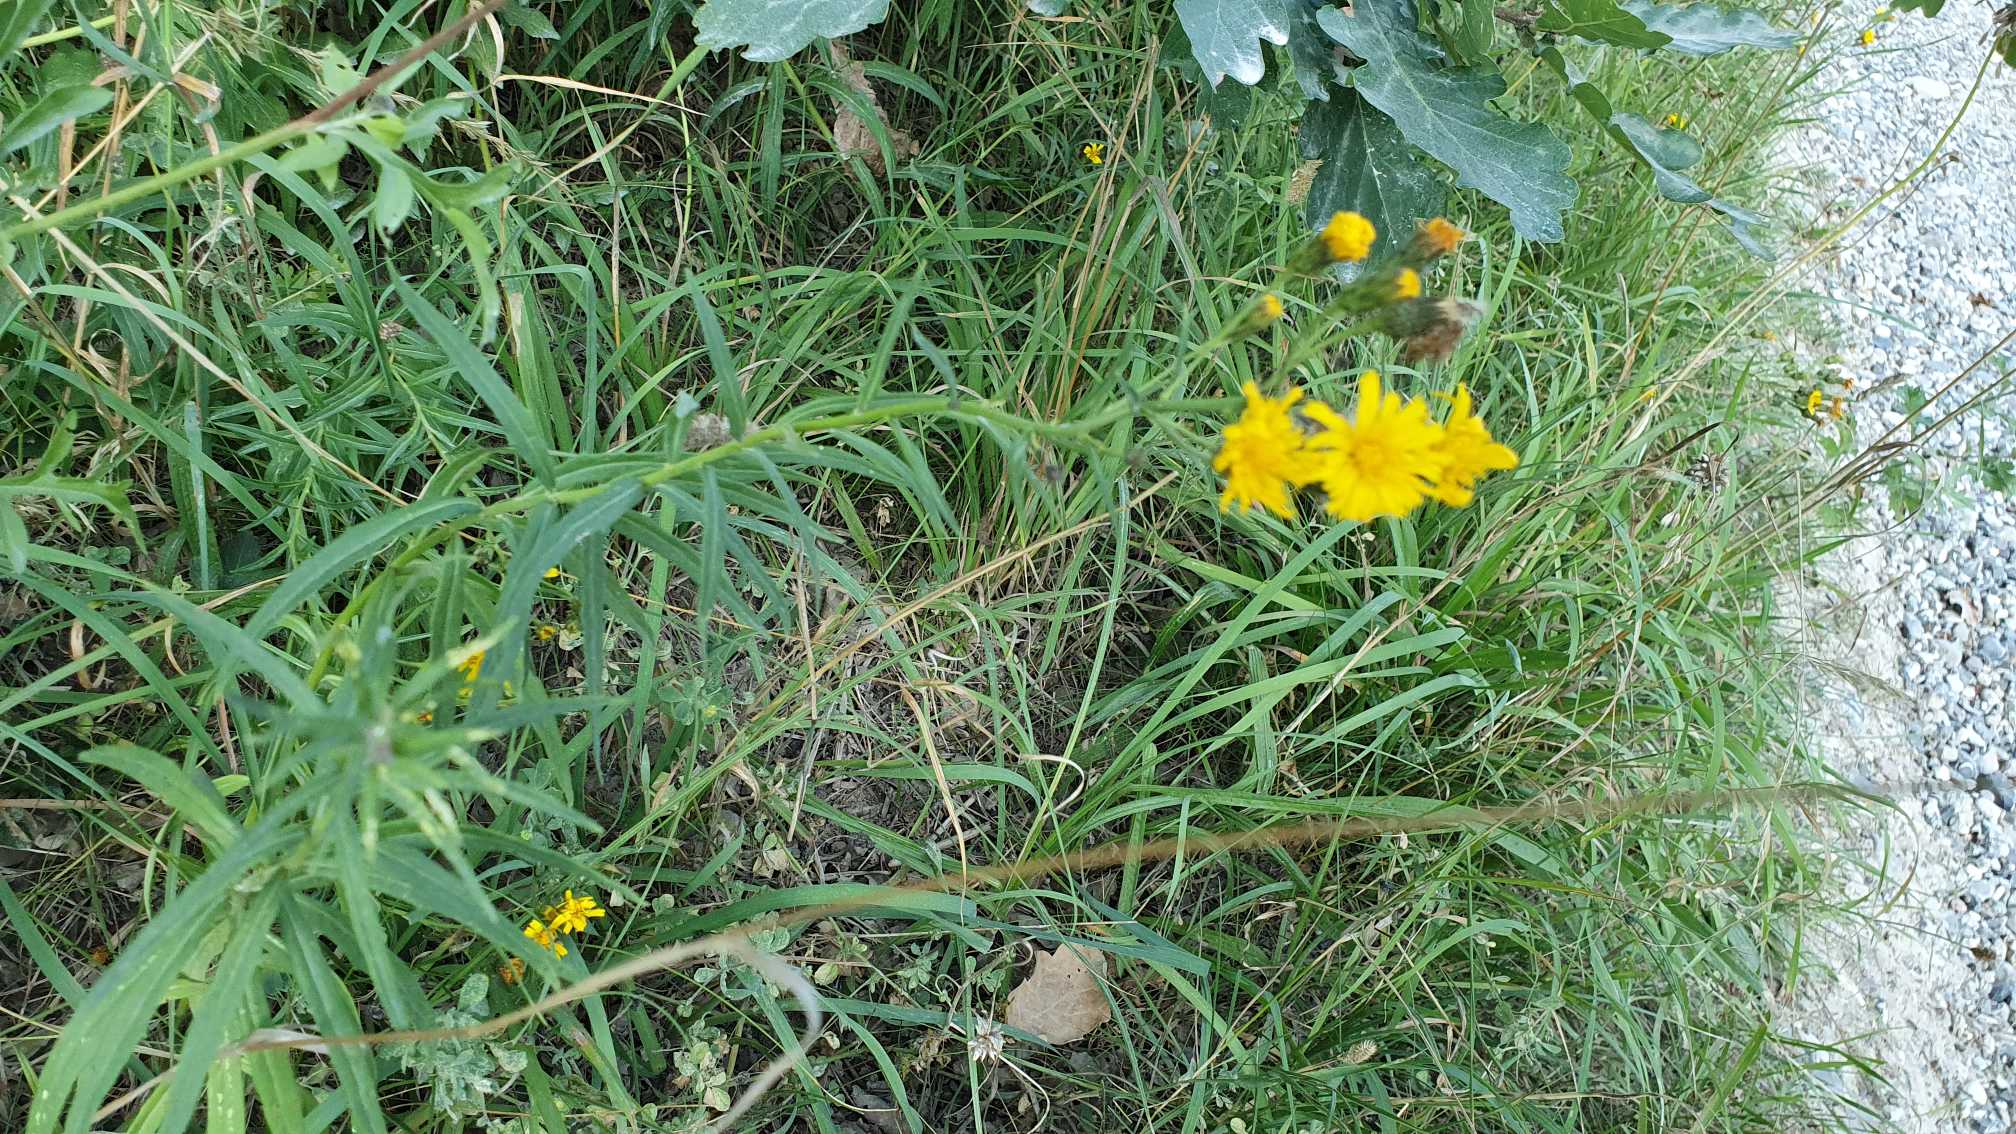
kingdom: Plantae
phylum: Tracheophyta
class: Magnoliopsida
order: Asterales
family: Asteraceae
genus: Hieracium
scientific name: Hieracium umbellatum
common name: Smalbladet høgeurt
